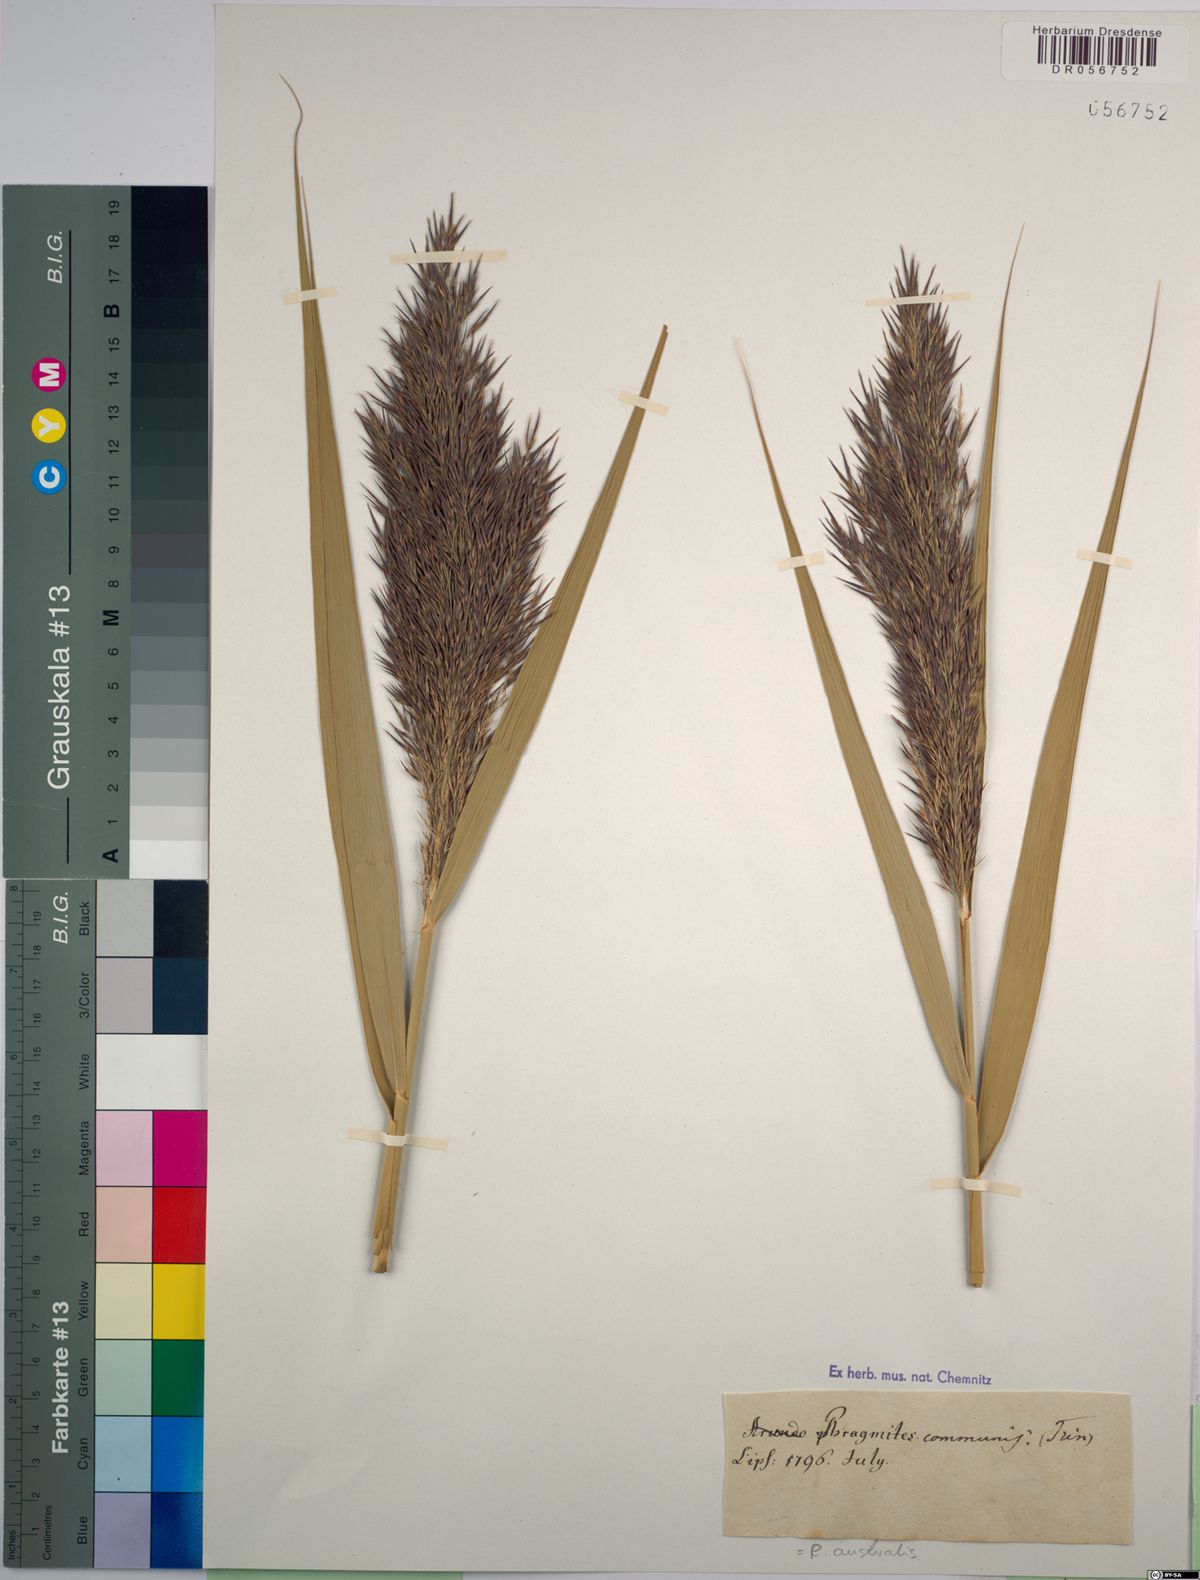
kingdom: Plantae
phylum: Tracheophyta
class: Liliopsida
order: Poales
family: Poaceae
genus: Phragmites
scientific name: Phragmites australis
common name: Common reed
